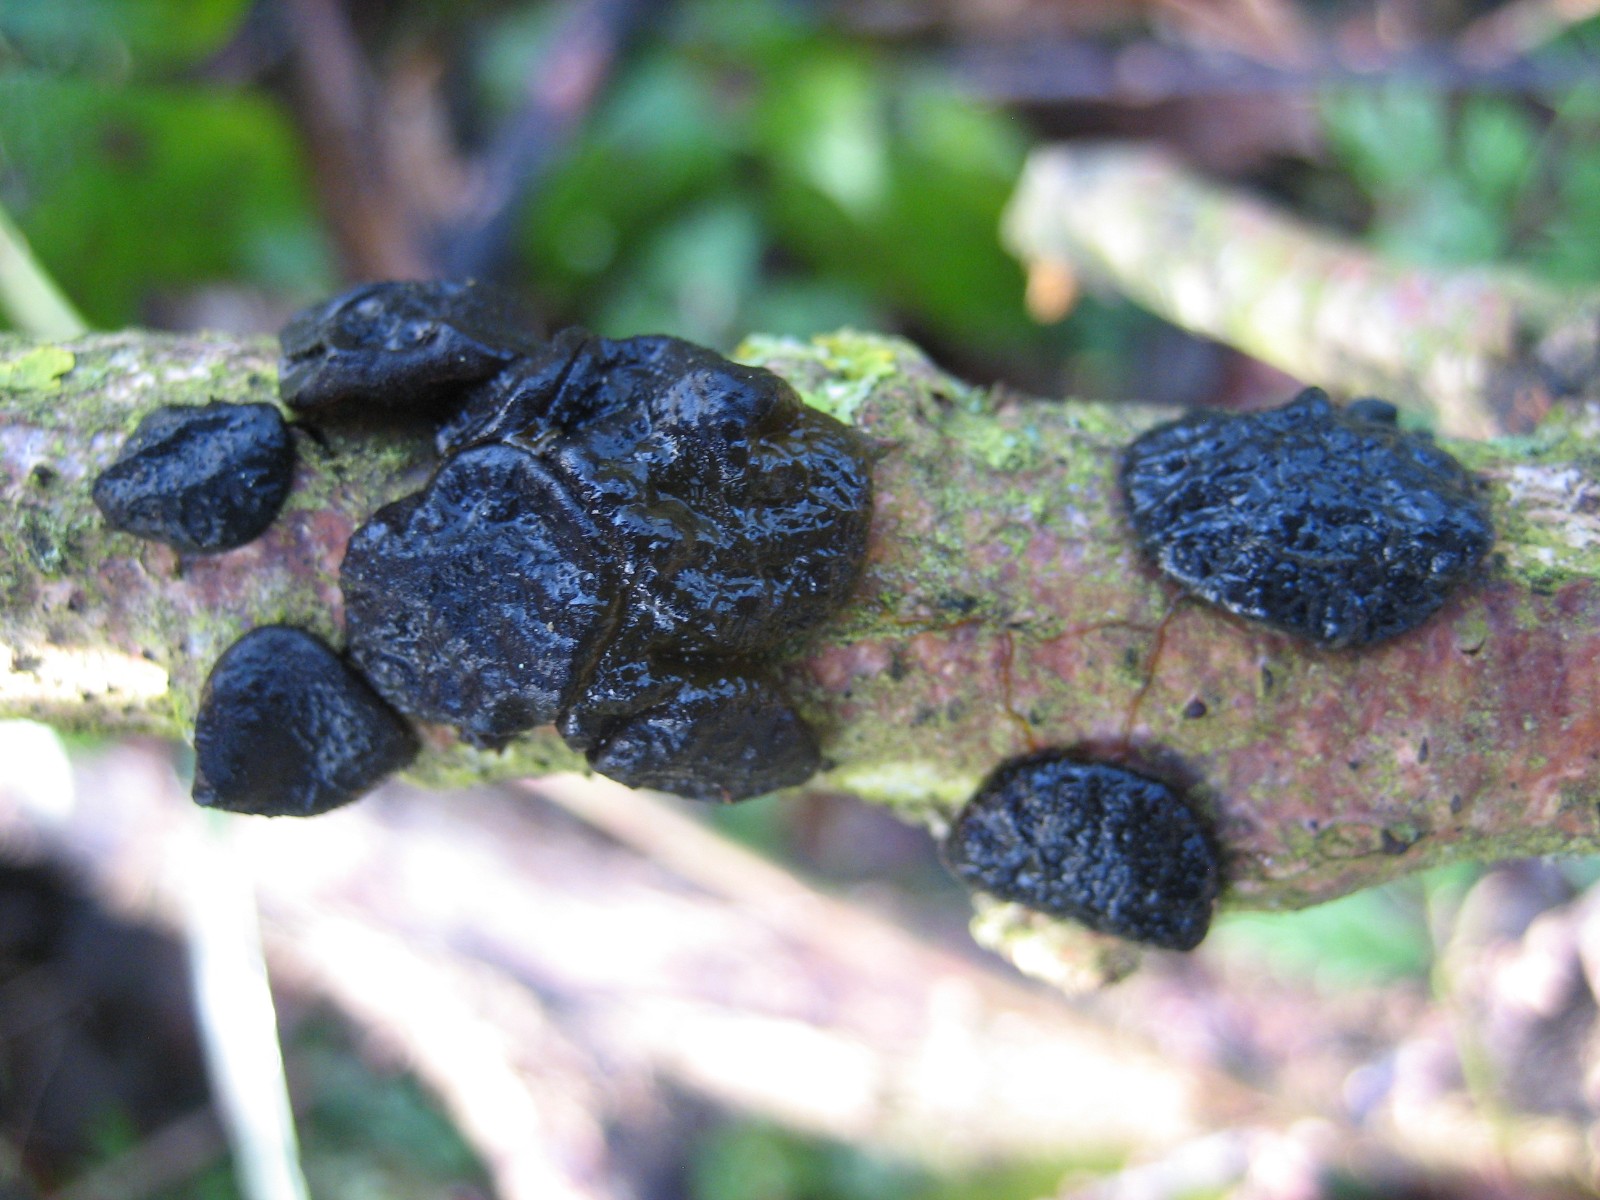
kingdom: Fungi
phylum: Basidiomycota
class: Agaricomycetes
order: Auriculariales
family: Auriculariaceae
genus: Exidia
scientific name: Exidia glandulosa
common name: ege-bævretop
